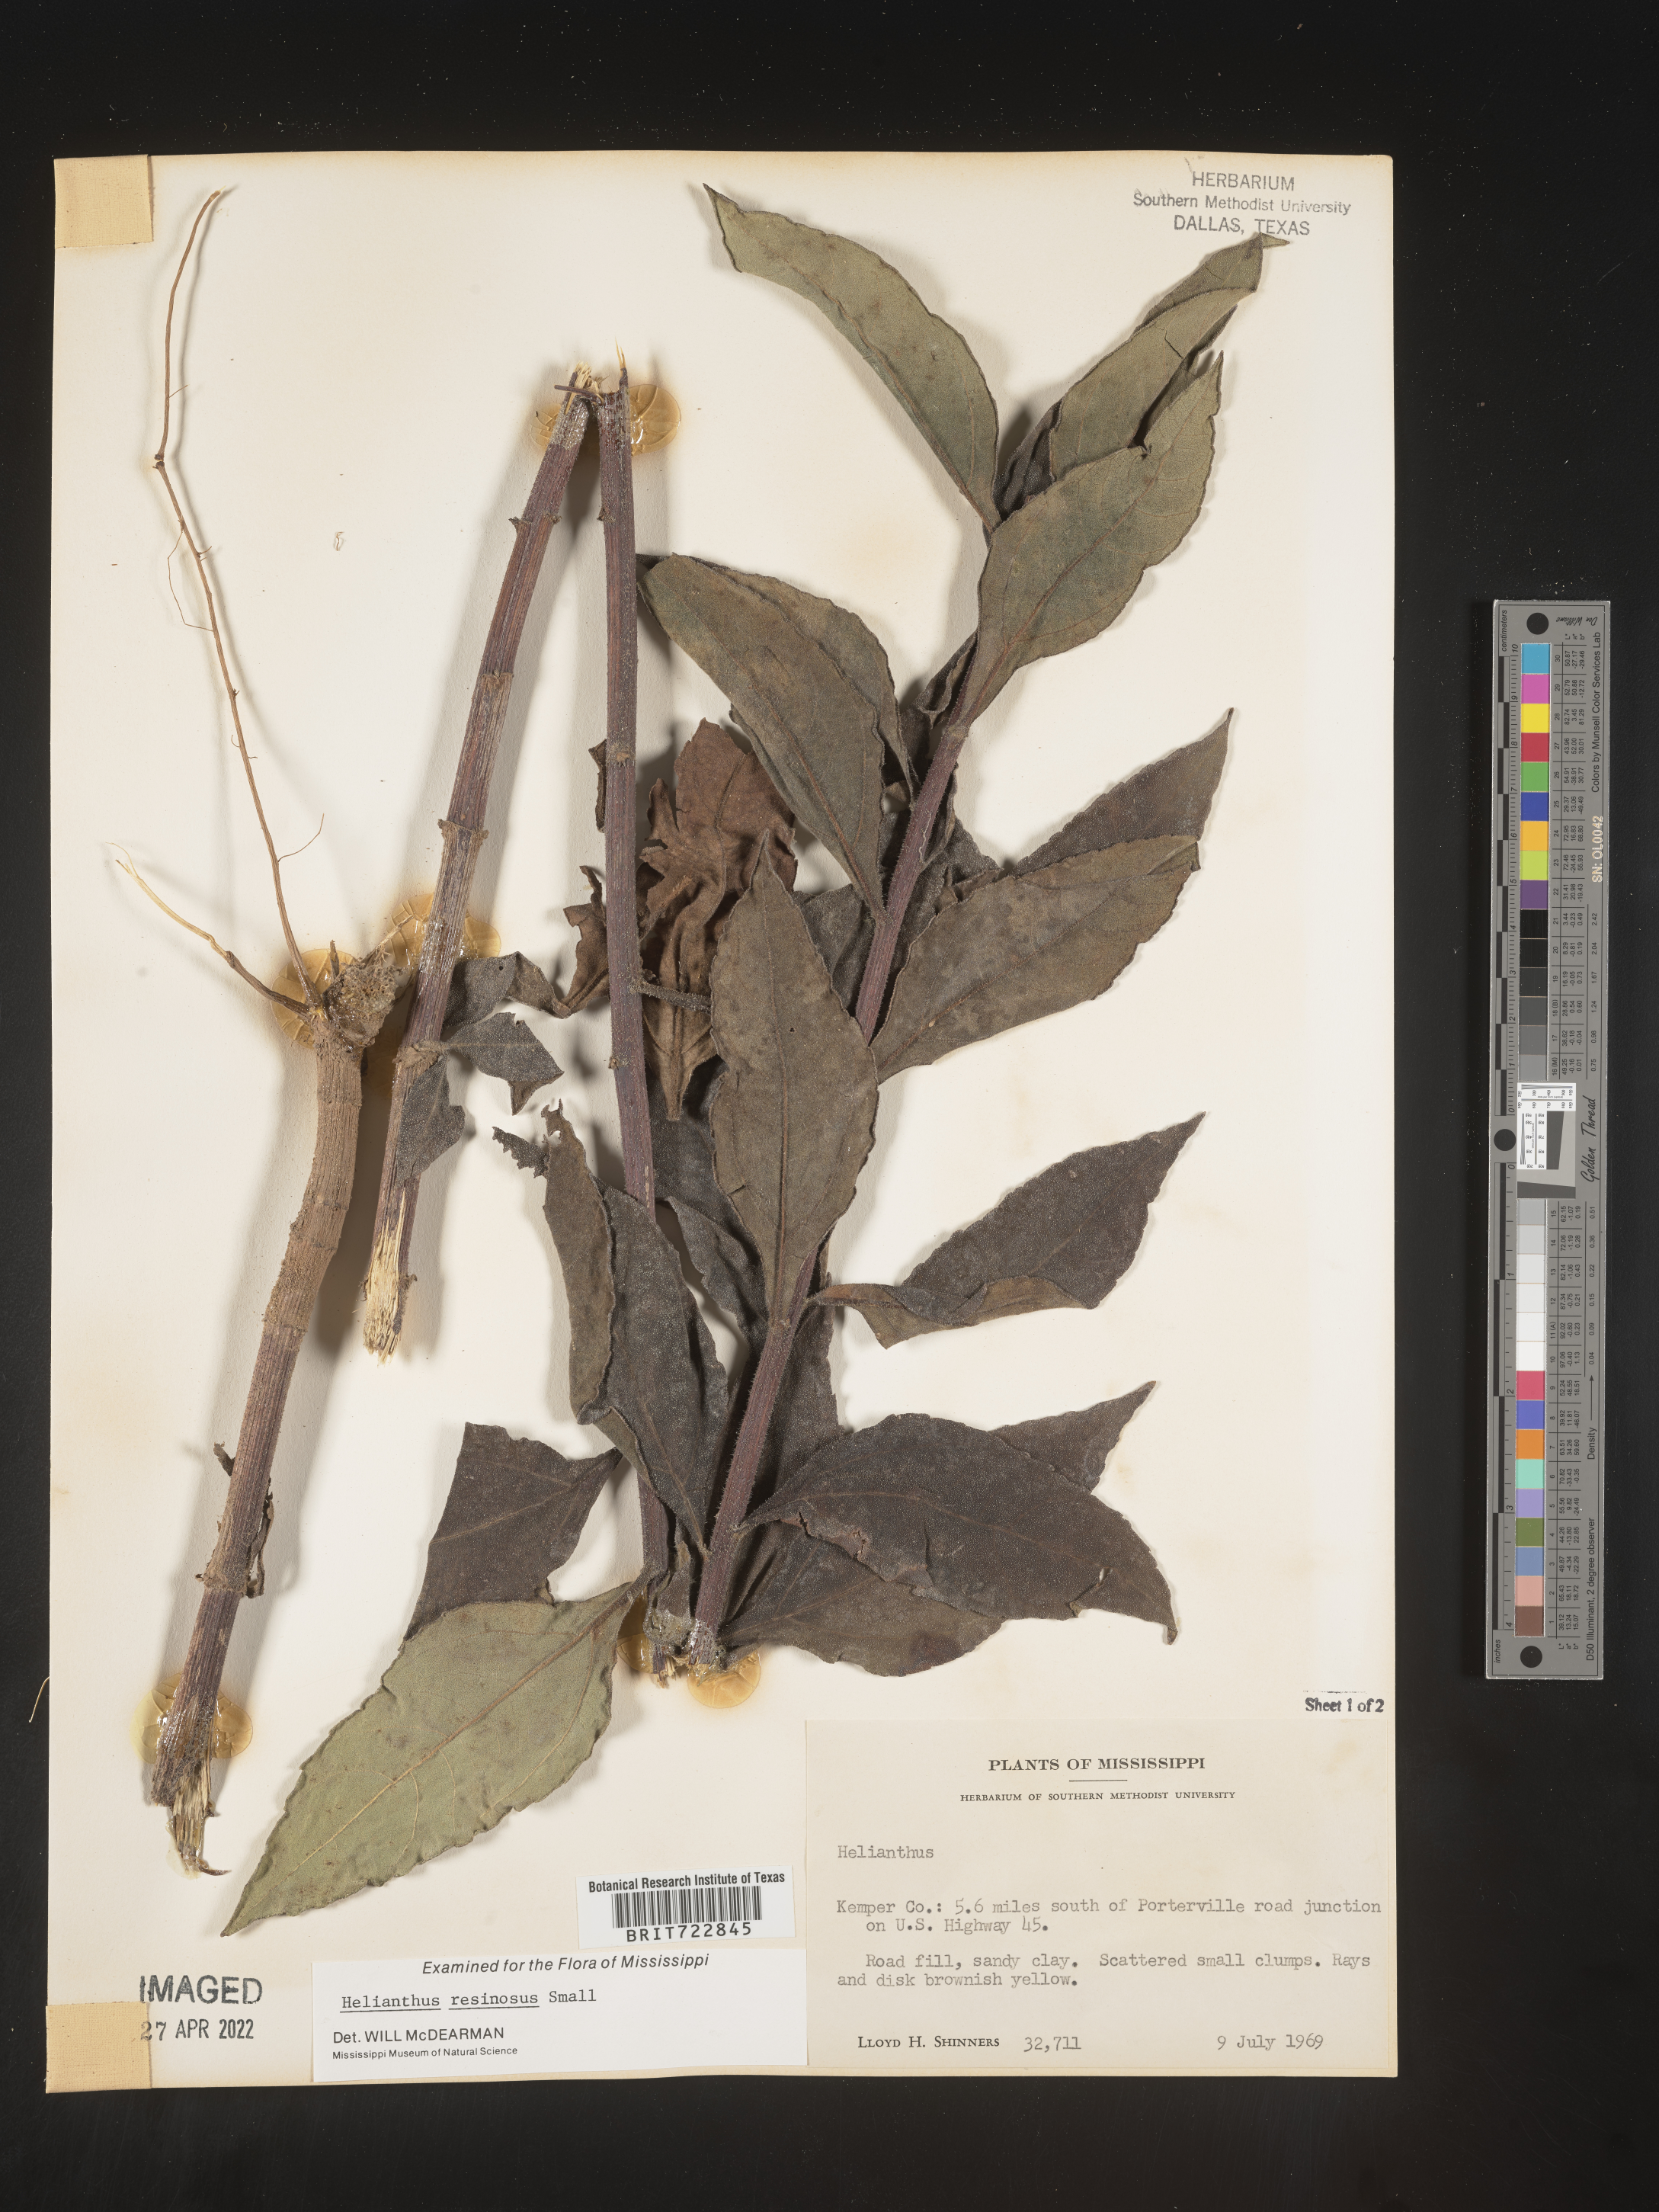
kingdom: Plantae
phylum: Tracheophyta
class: Magnoliopsida
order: Asterales
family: Asteraceae
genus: Helianthus
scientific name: Helianthus resinosus
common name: Resin-dot sunflower
